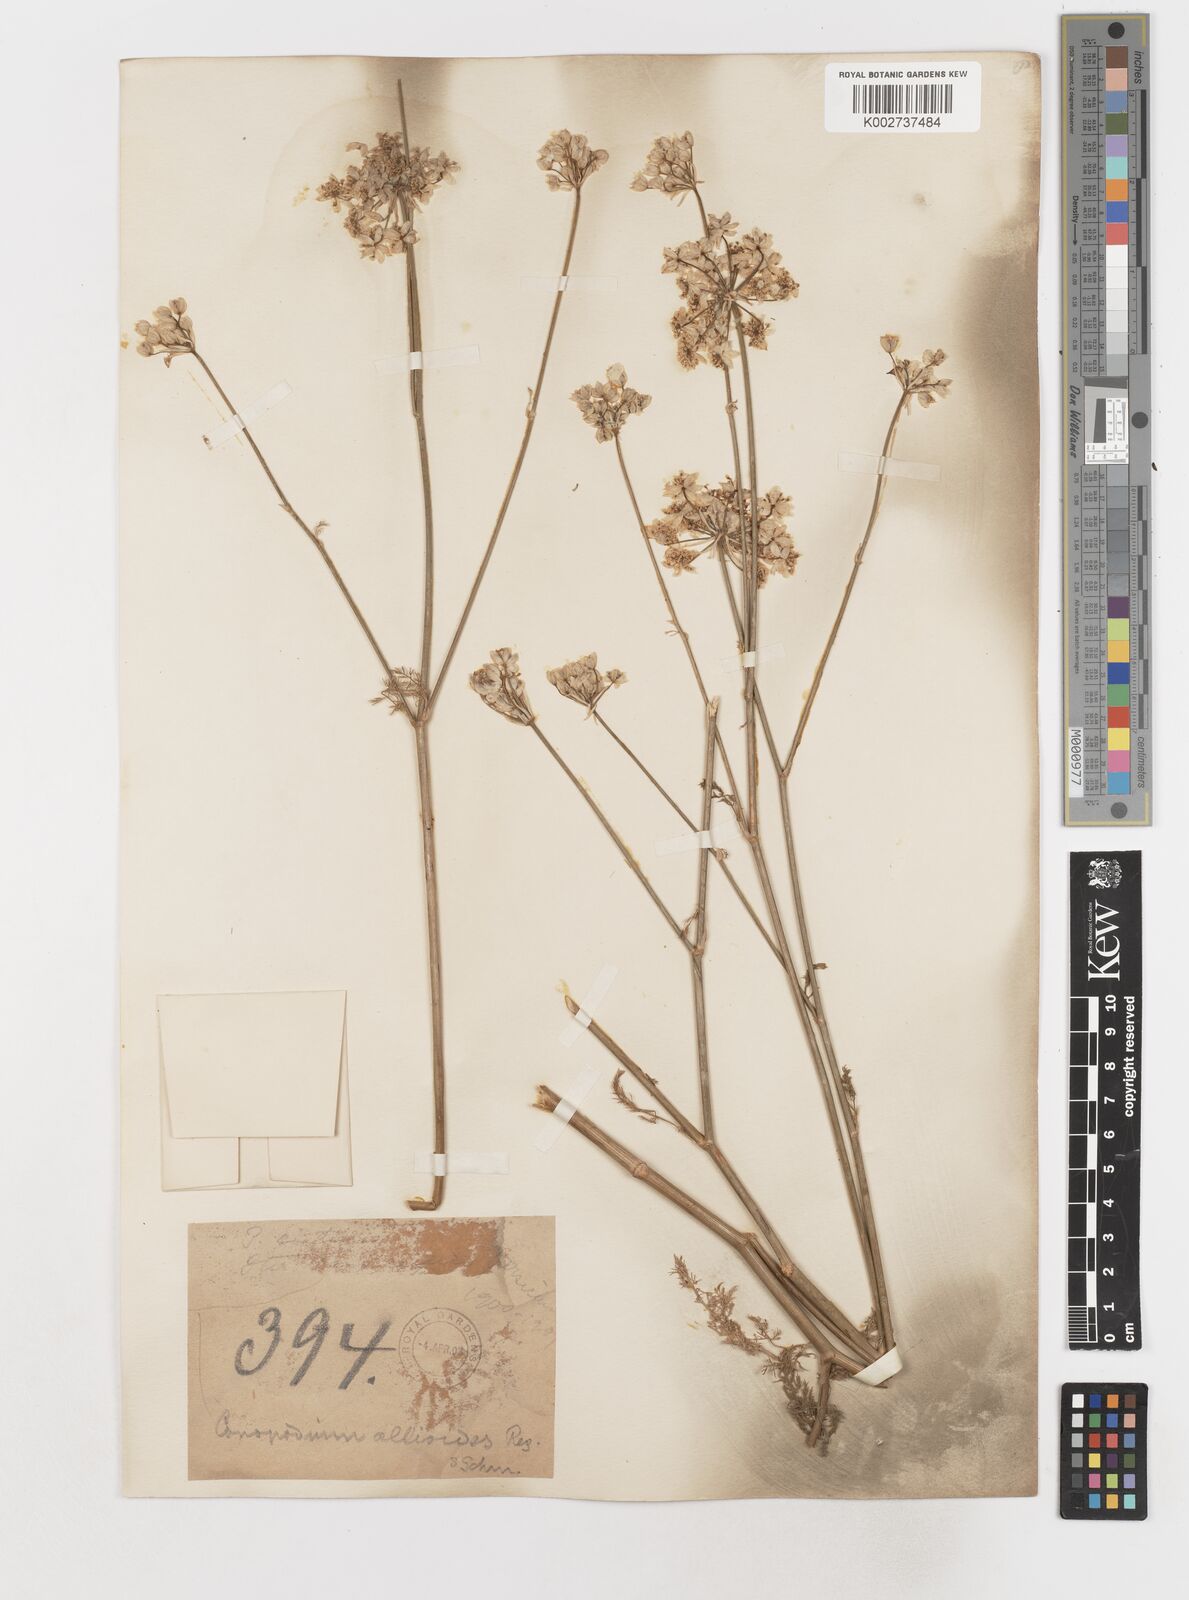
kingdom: Plantae
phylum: Tracheophyta
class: Magnoliopsida
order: Apiales
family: Apiaceae
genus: Scaligeria
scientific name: Scaligeria allioides
